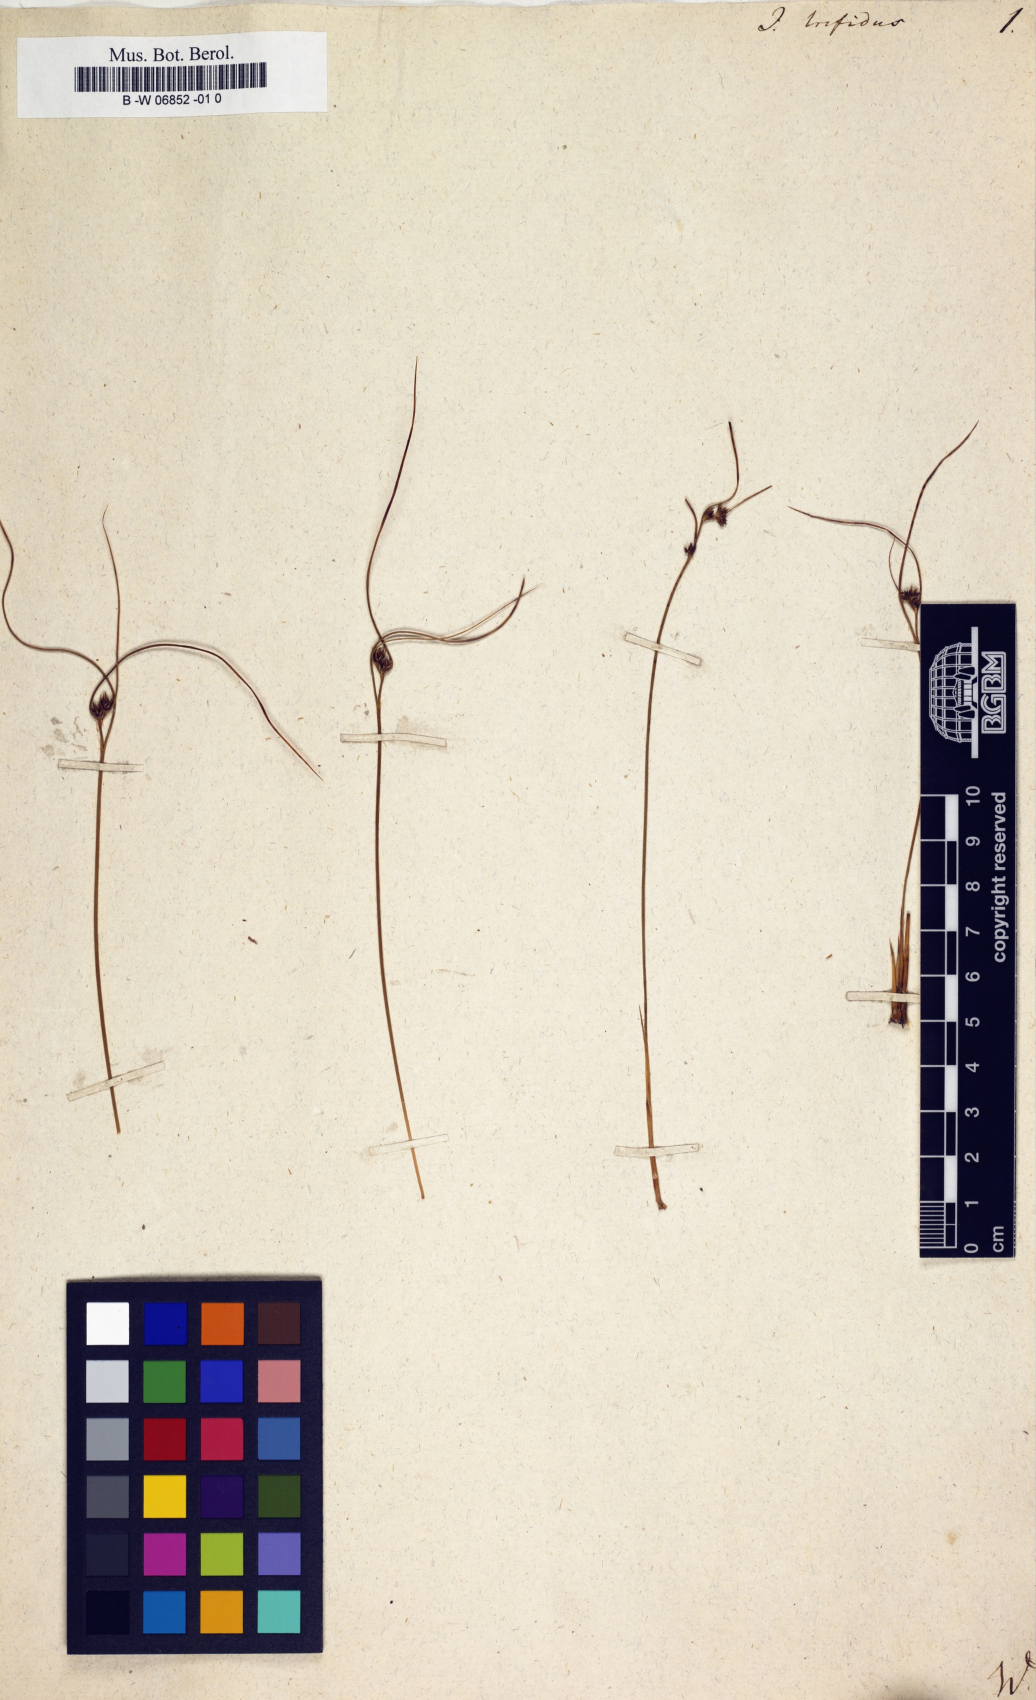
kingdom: Plantae
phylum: Tracheophyta
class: Liliopsida
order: Poales
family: Juncaceae
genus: Oreojuncus
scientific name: Oreojuncus trifidus
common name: Highland rush
